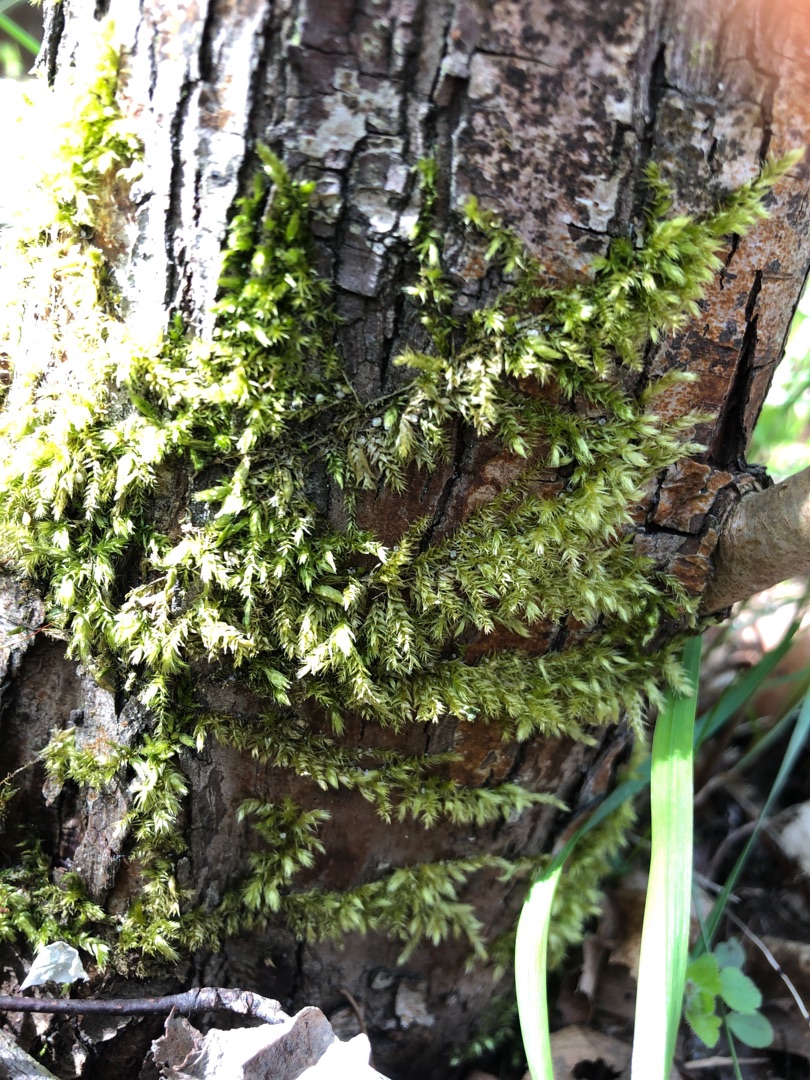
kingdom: Plantae
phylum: Bryophyta
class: Bryopsida
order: Hypnales
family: Brachytheciaceae
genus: Brachythecium
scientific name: Brachythecium rutabulum
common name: Almindelig kortkapsel
